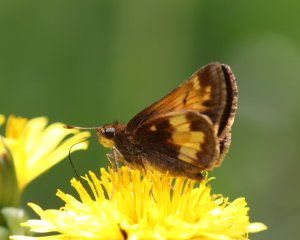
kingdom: Animalia
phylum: Arthropoda
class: Insecta
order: Lepidoptera
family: Hesperiidae
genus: Lon
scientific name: Lon hobomok
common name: Hobomok Skipper
